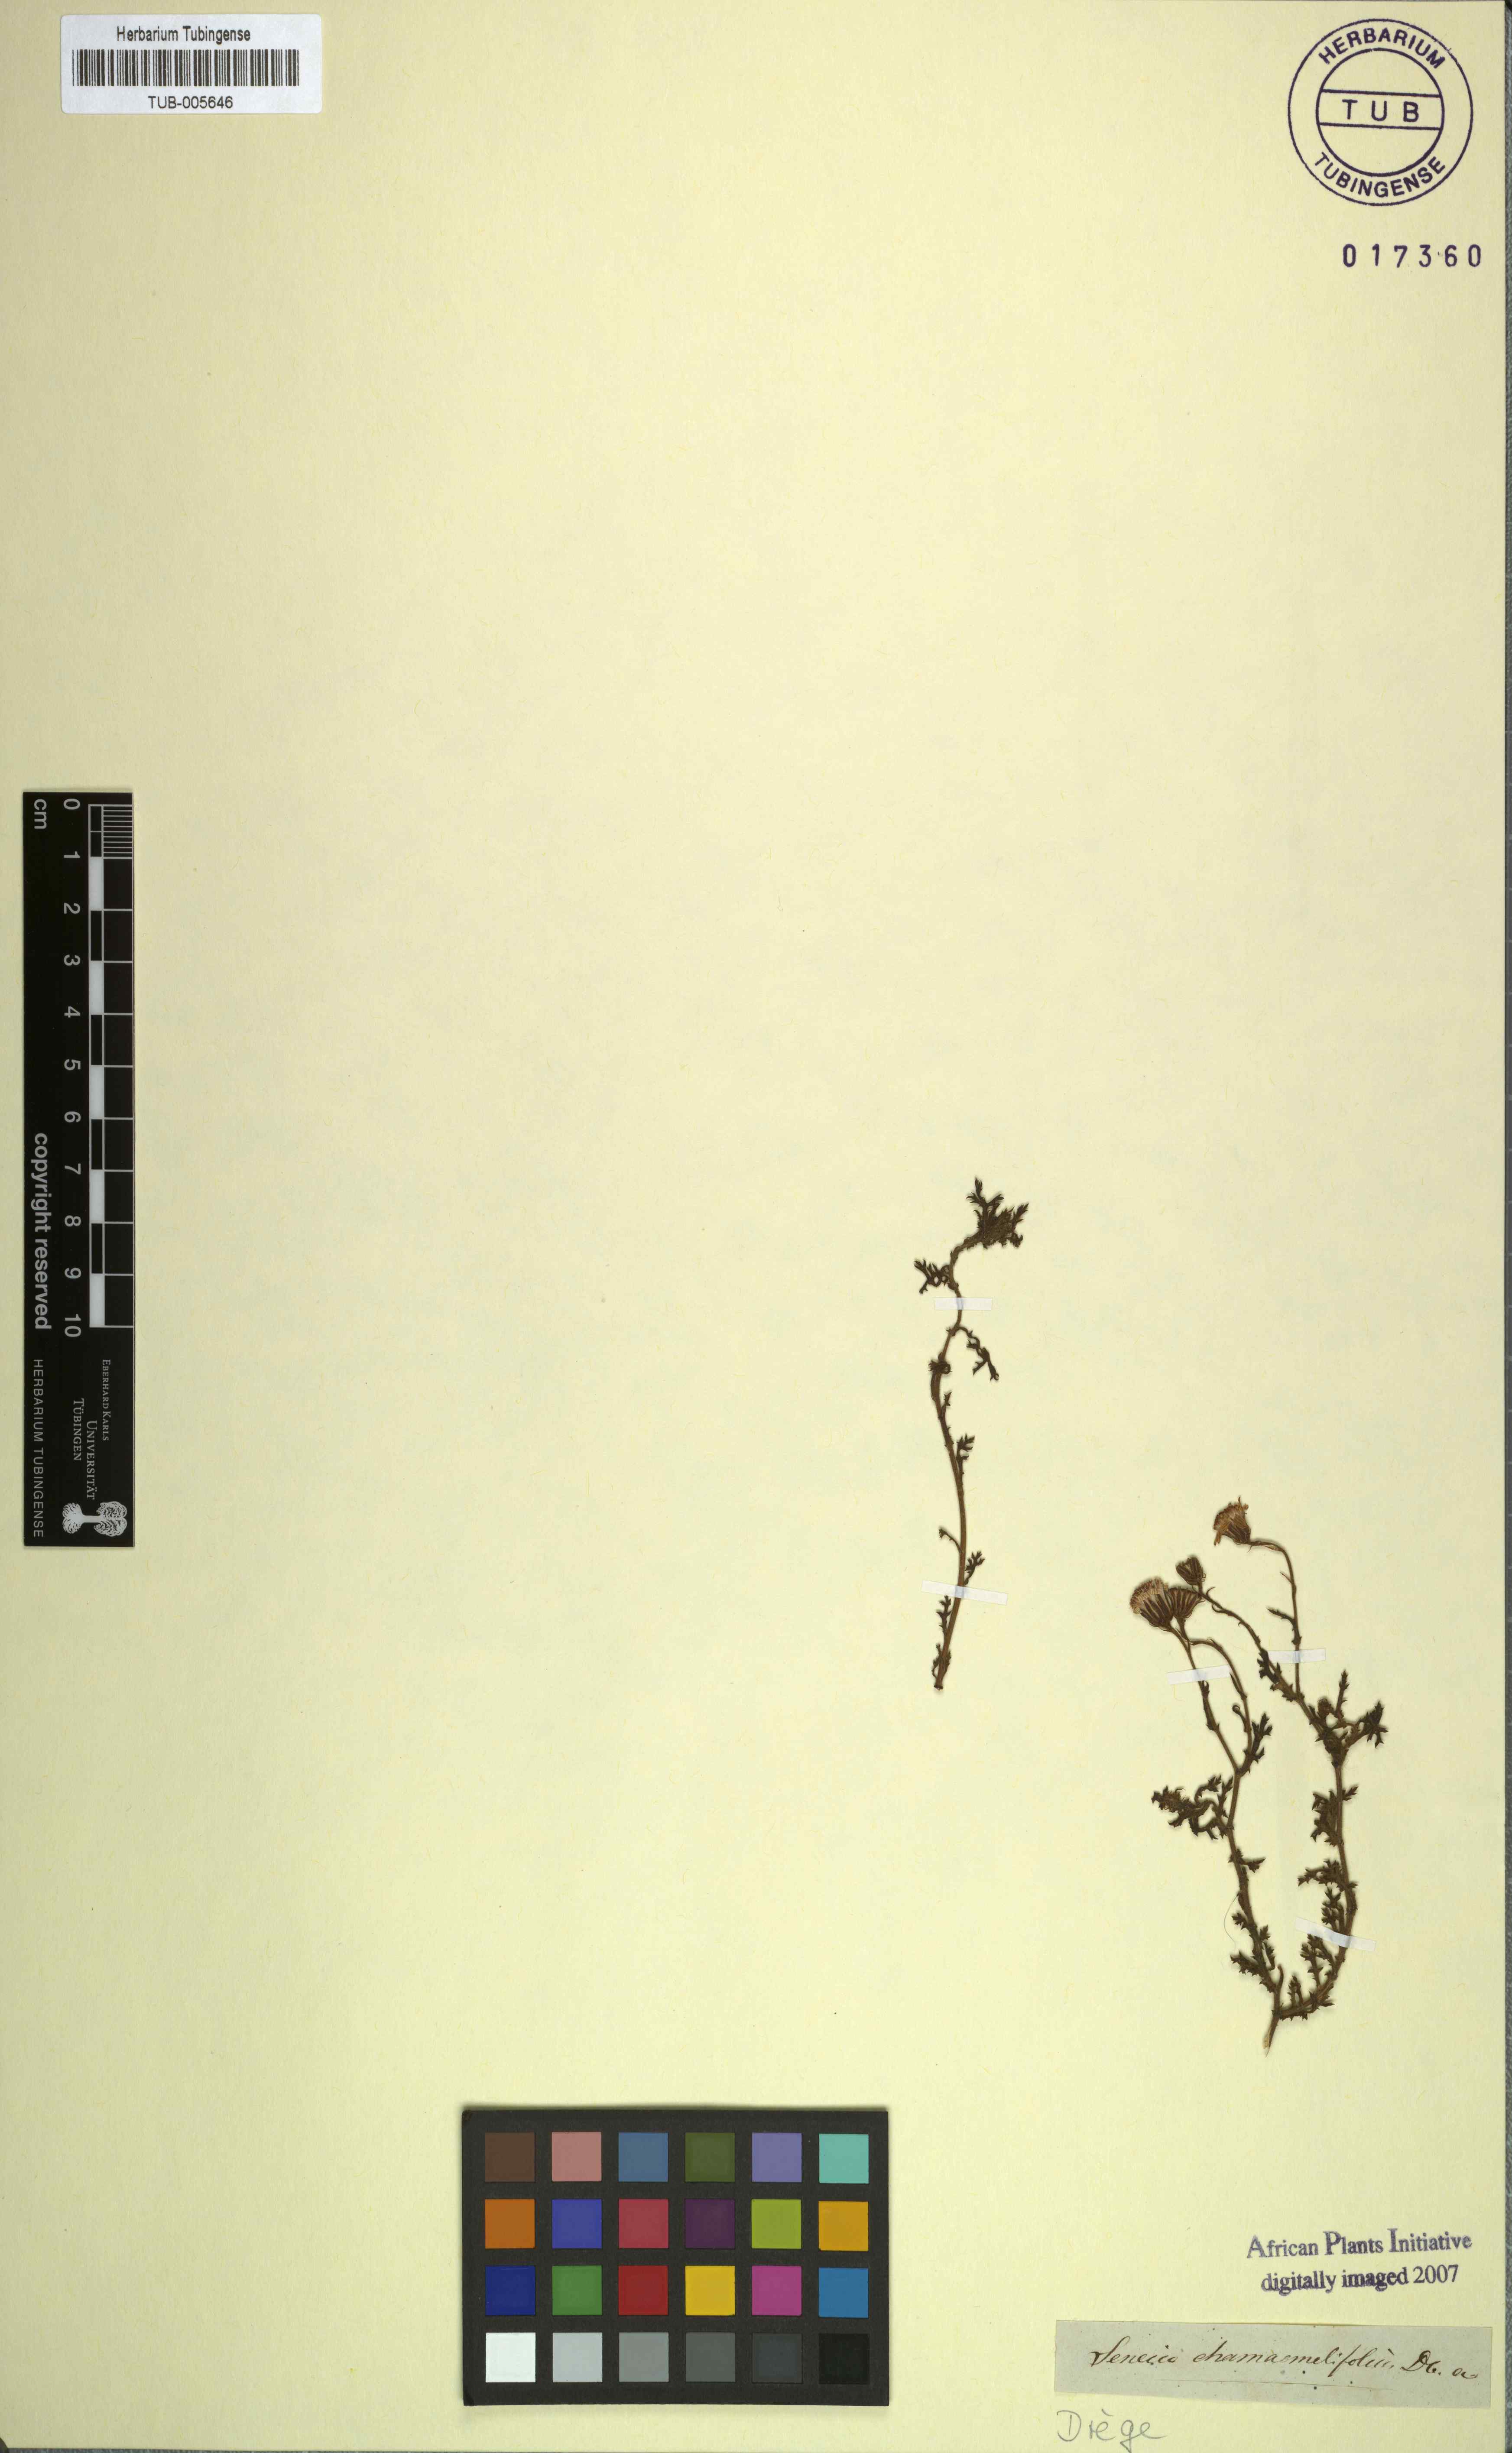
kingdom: Plantae
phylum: Tracheophyta
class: Magnoliopsida
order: Asterales
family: Asteraceae
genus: Senecio
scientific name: Senecio diffusus
